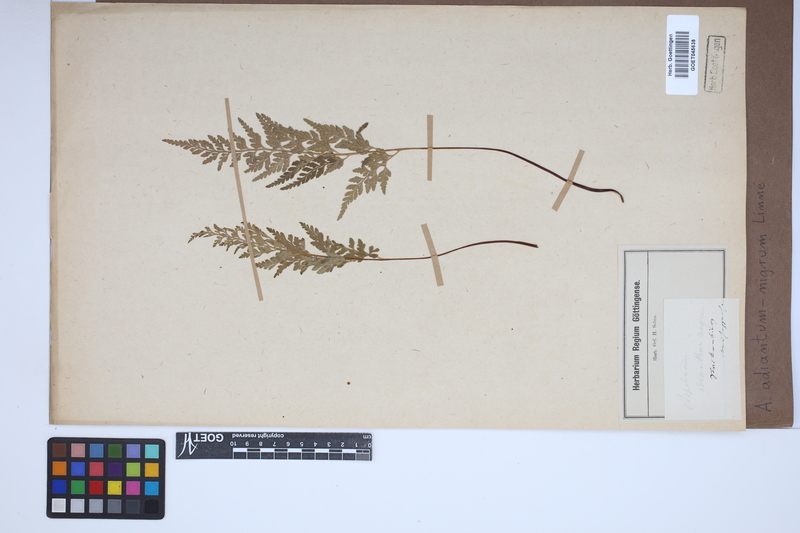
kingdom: Plantae
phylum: Tracheophyta
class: Polypodiopsida
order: Polypodiales
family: Aspleniaceae
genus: Asplenium
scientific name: Asplenium adiantum-nigrum
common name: Black spleenwort
